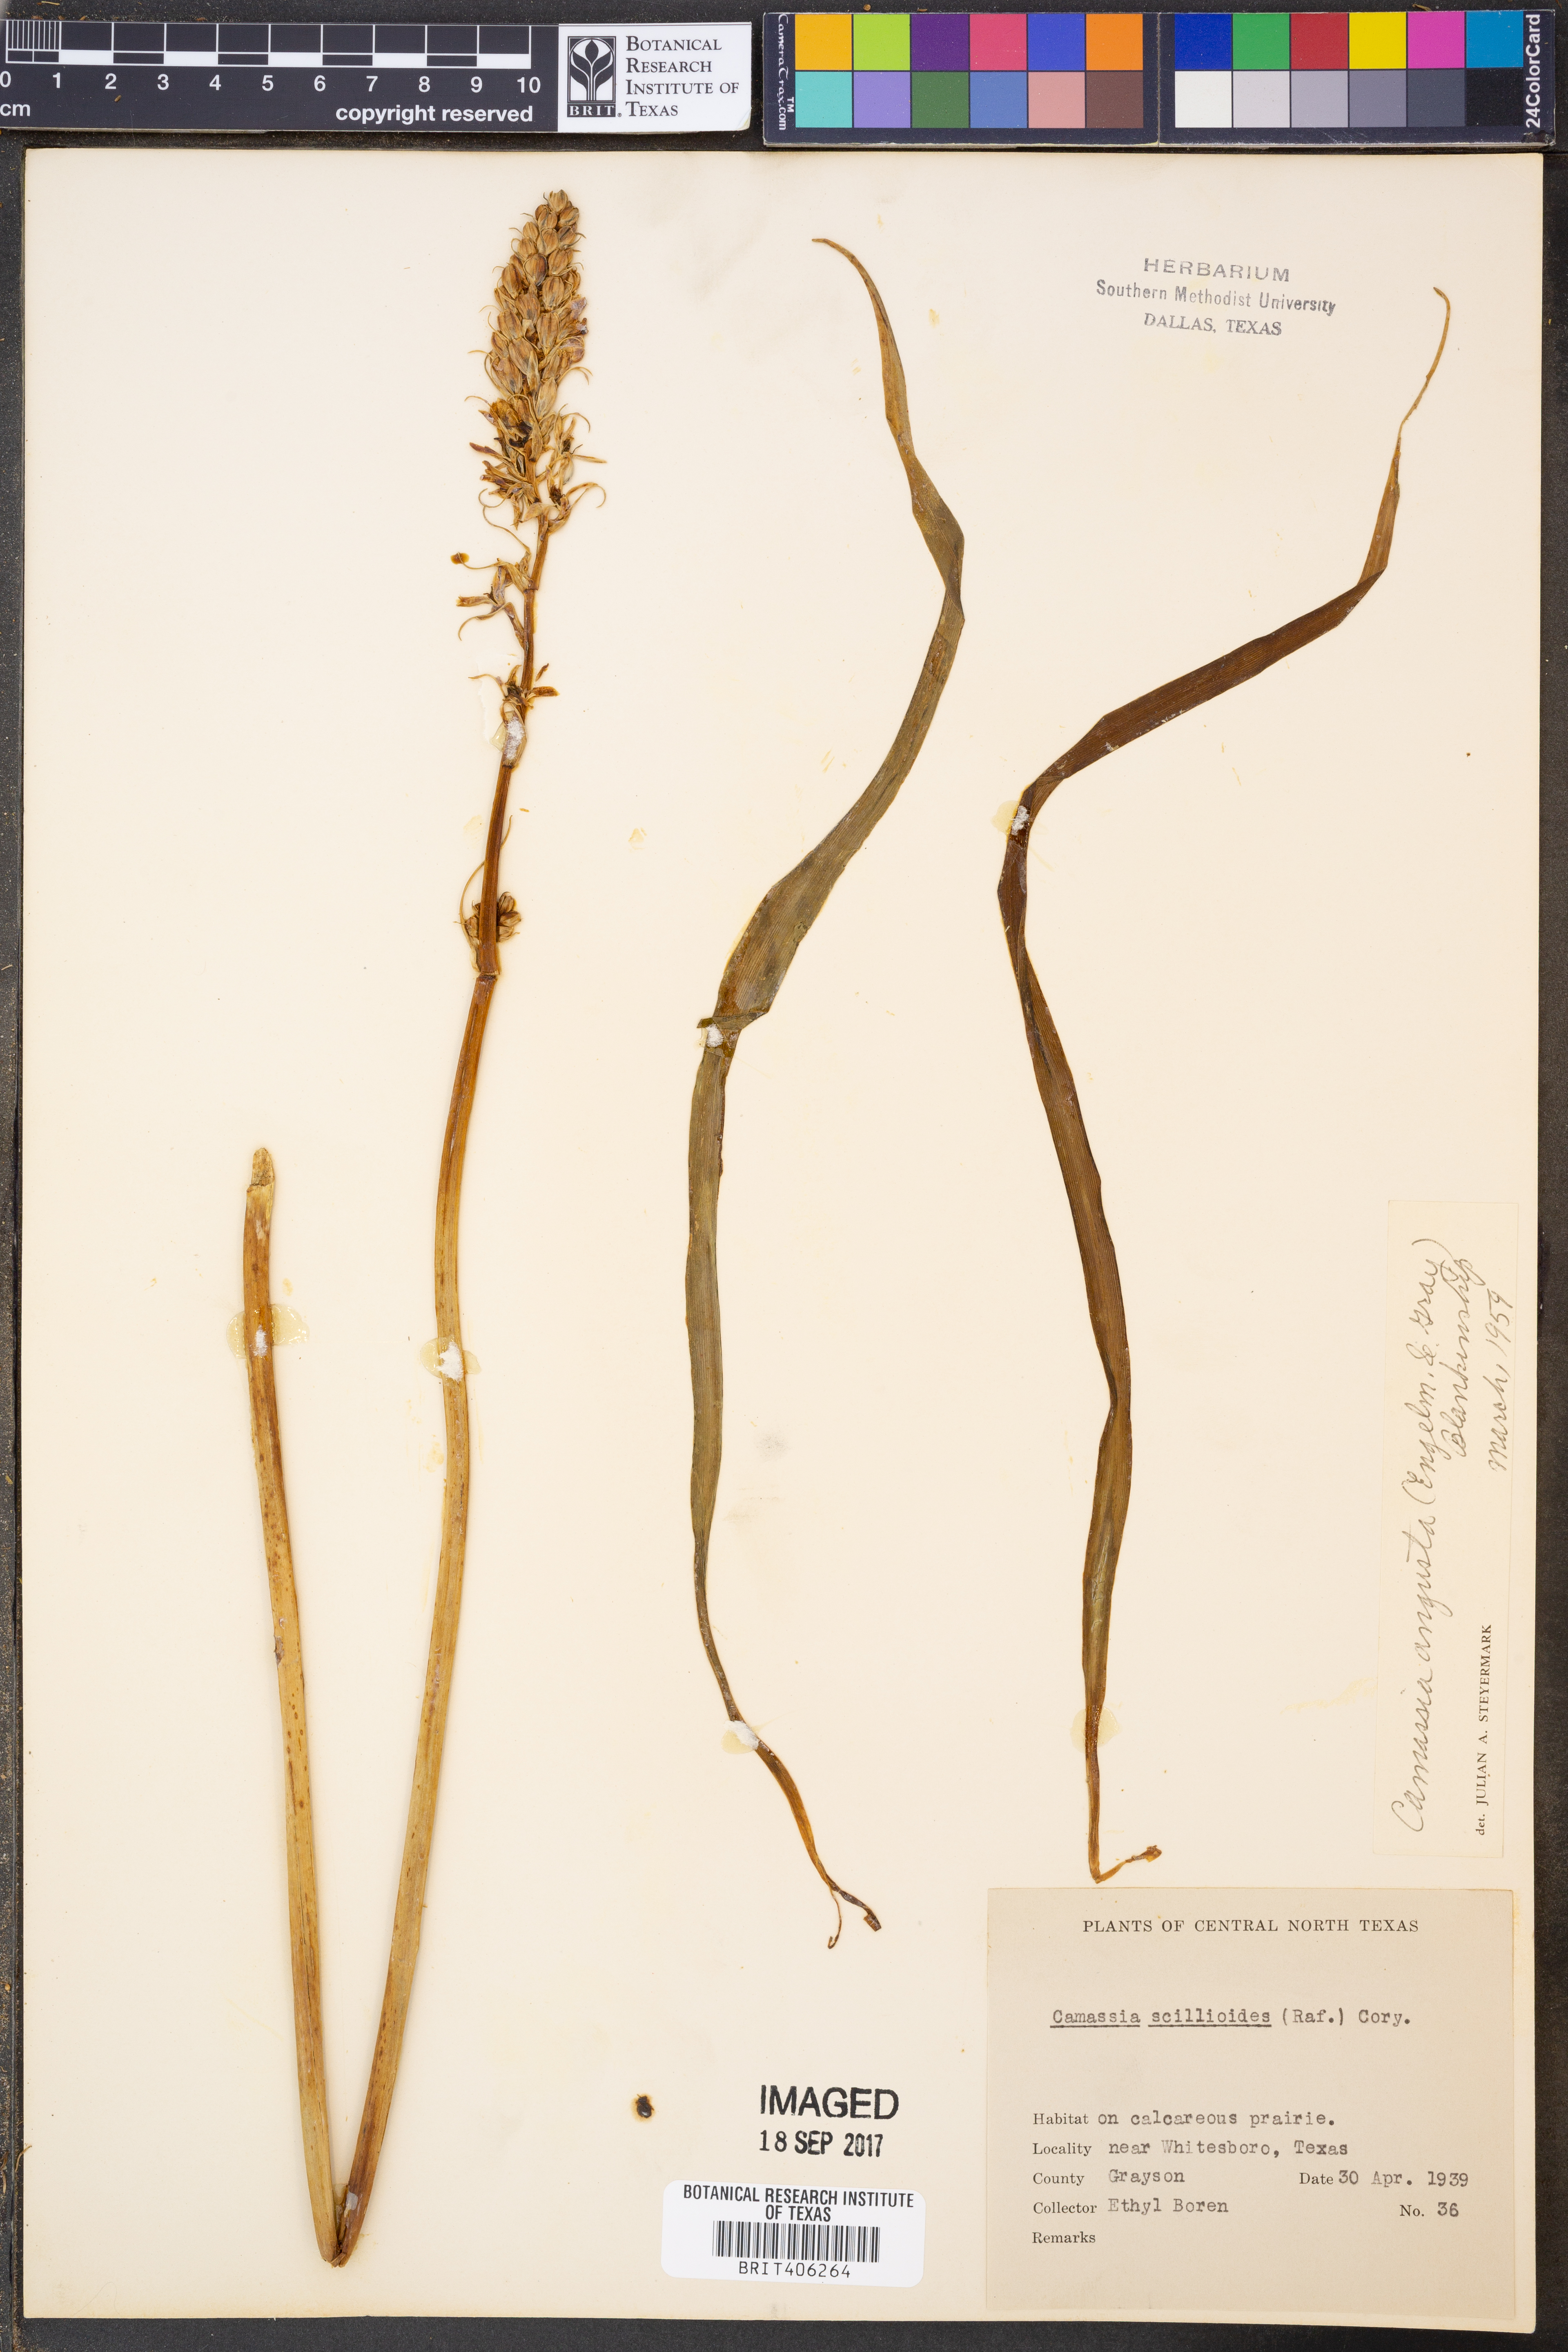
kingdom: Plantae
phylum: Tracheophyta
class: Liliopsida
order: Asparagales
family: Asparagaceae
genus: Camassia
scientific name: Camassia angusta
